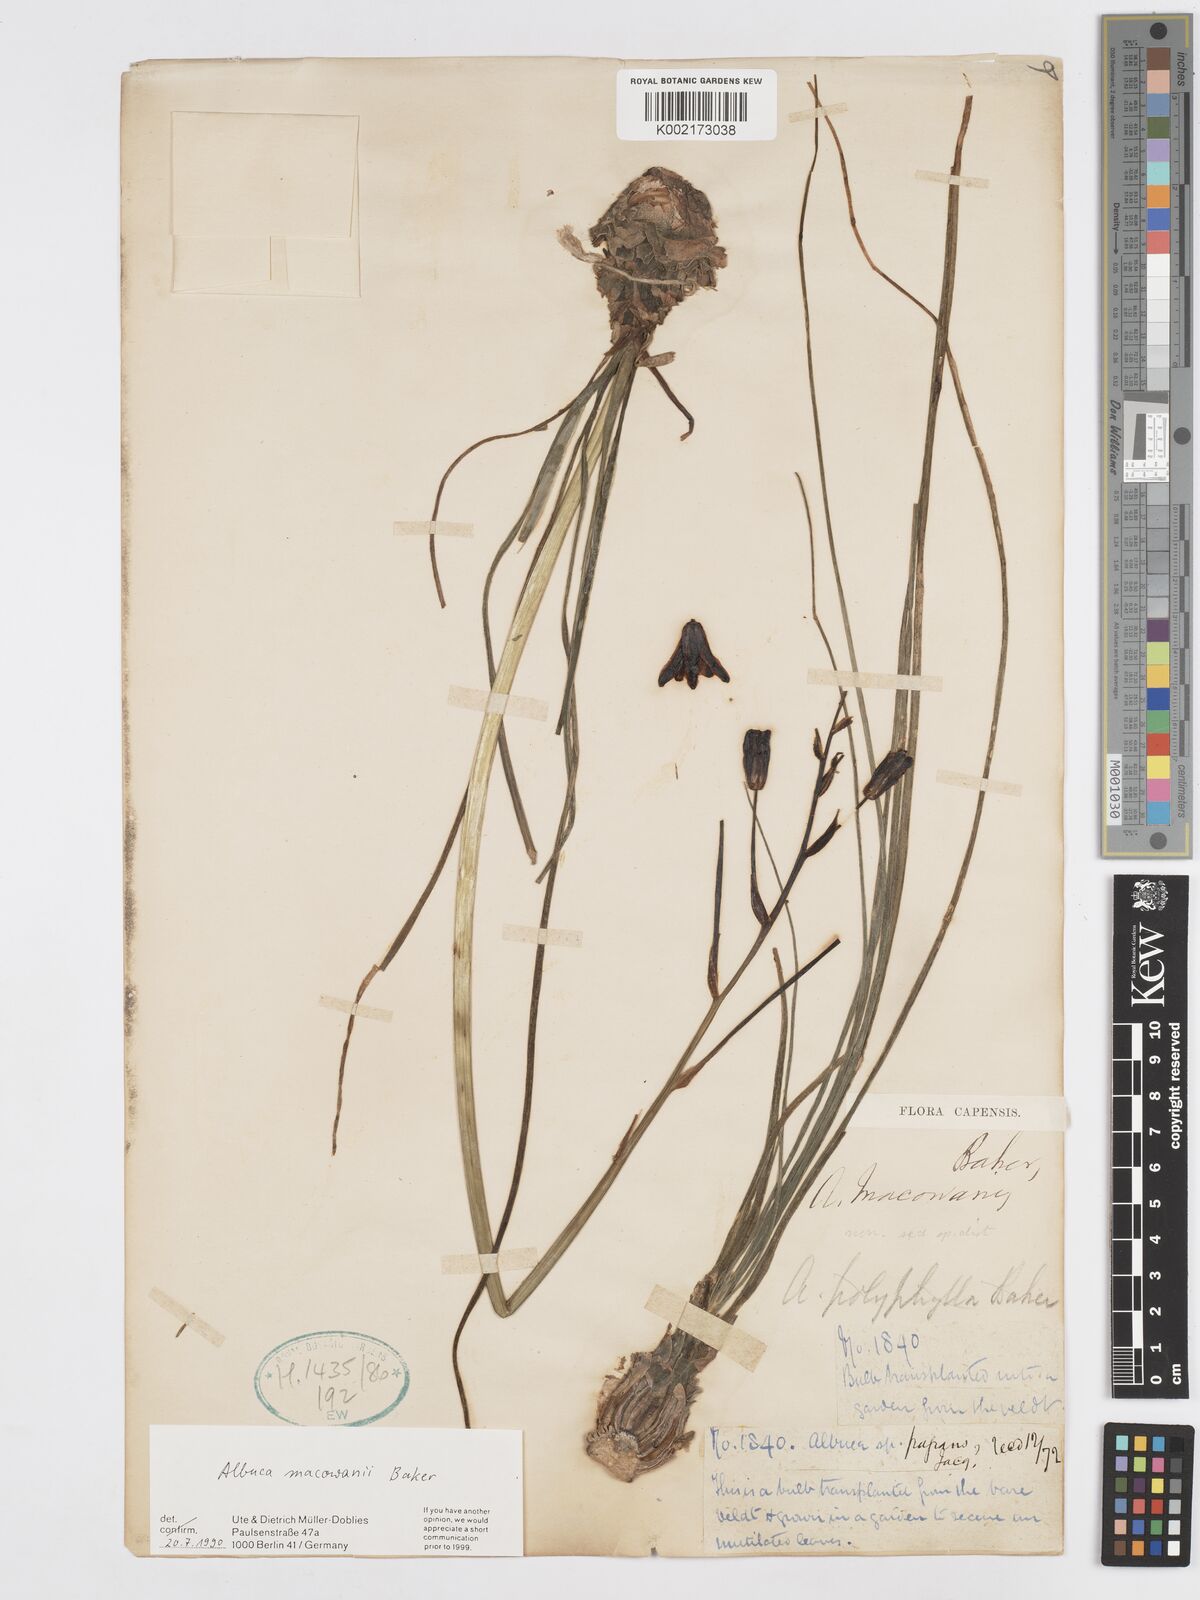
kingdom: Plantae
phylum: Tracheophyta
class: Liliopsida
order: Asparagales
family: Asparagaceae
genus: Albuca
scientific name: Albuca macowanii
